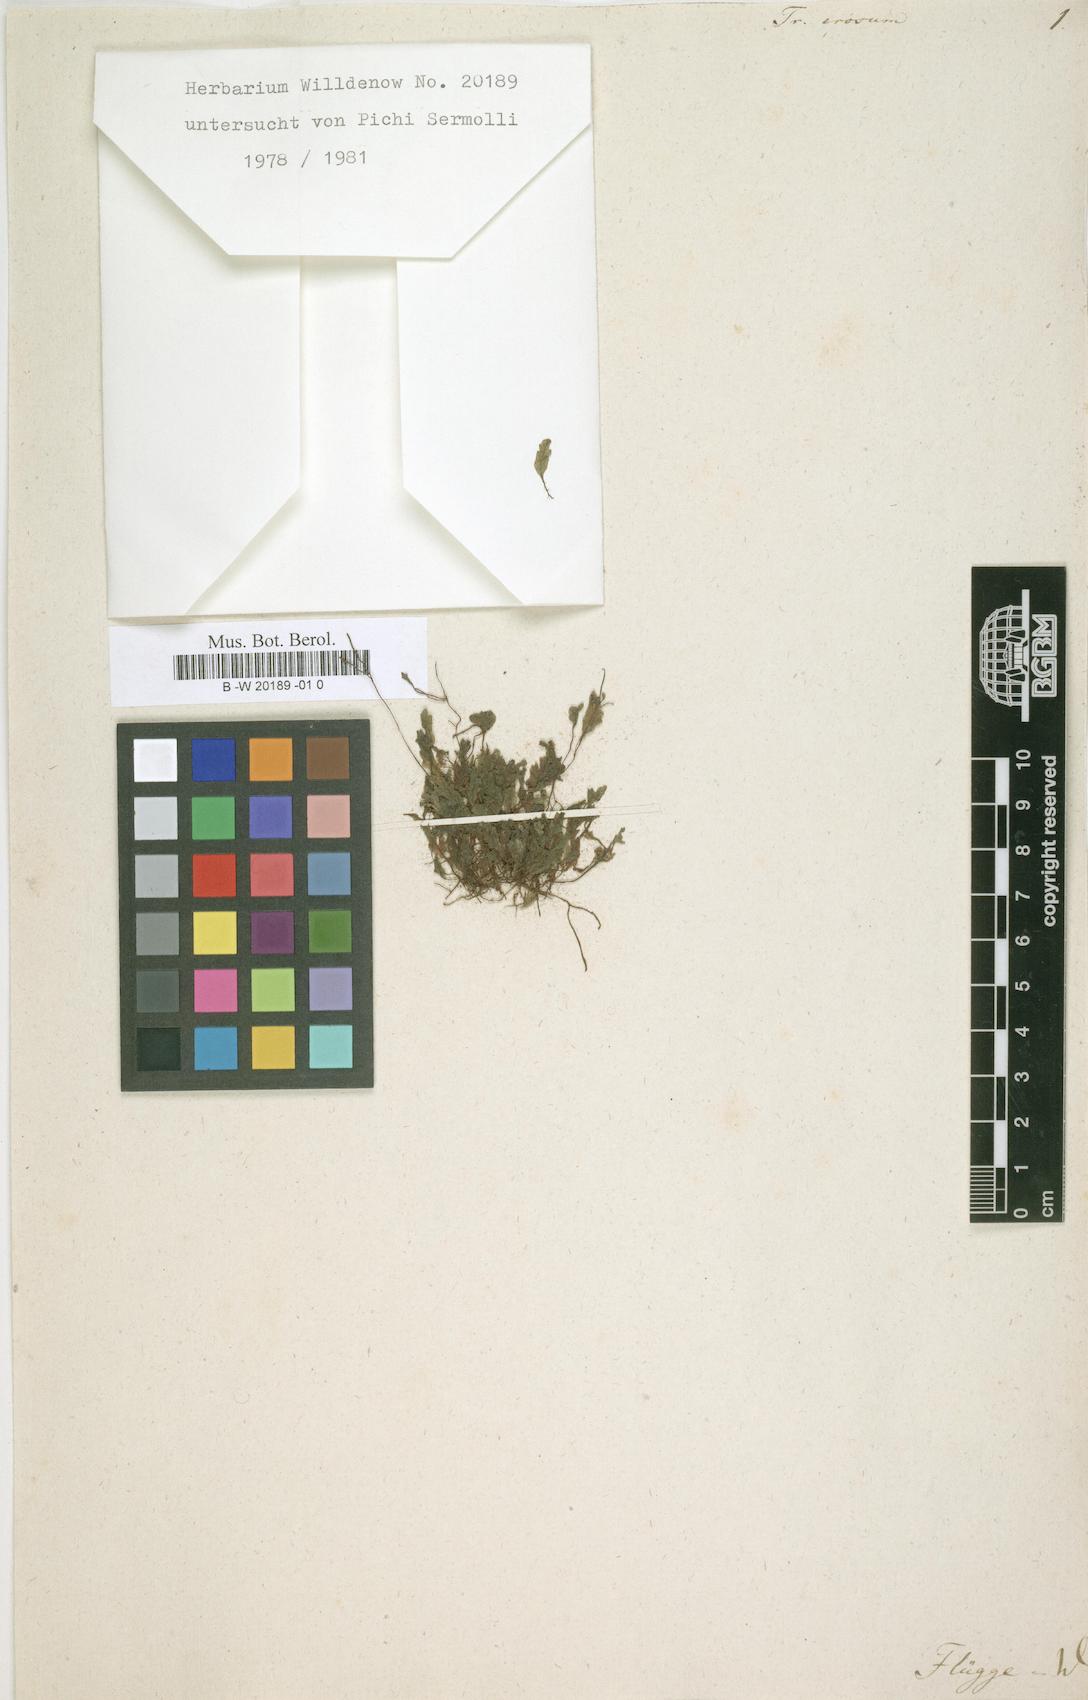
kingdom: Plantae
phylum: Tracheophyta
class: Polypodiopsida
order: Hymenophyllales
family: Hymenophyllaceae
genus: Didymoglossum
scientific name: Didymoglossum erosum
